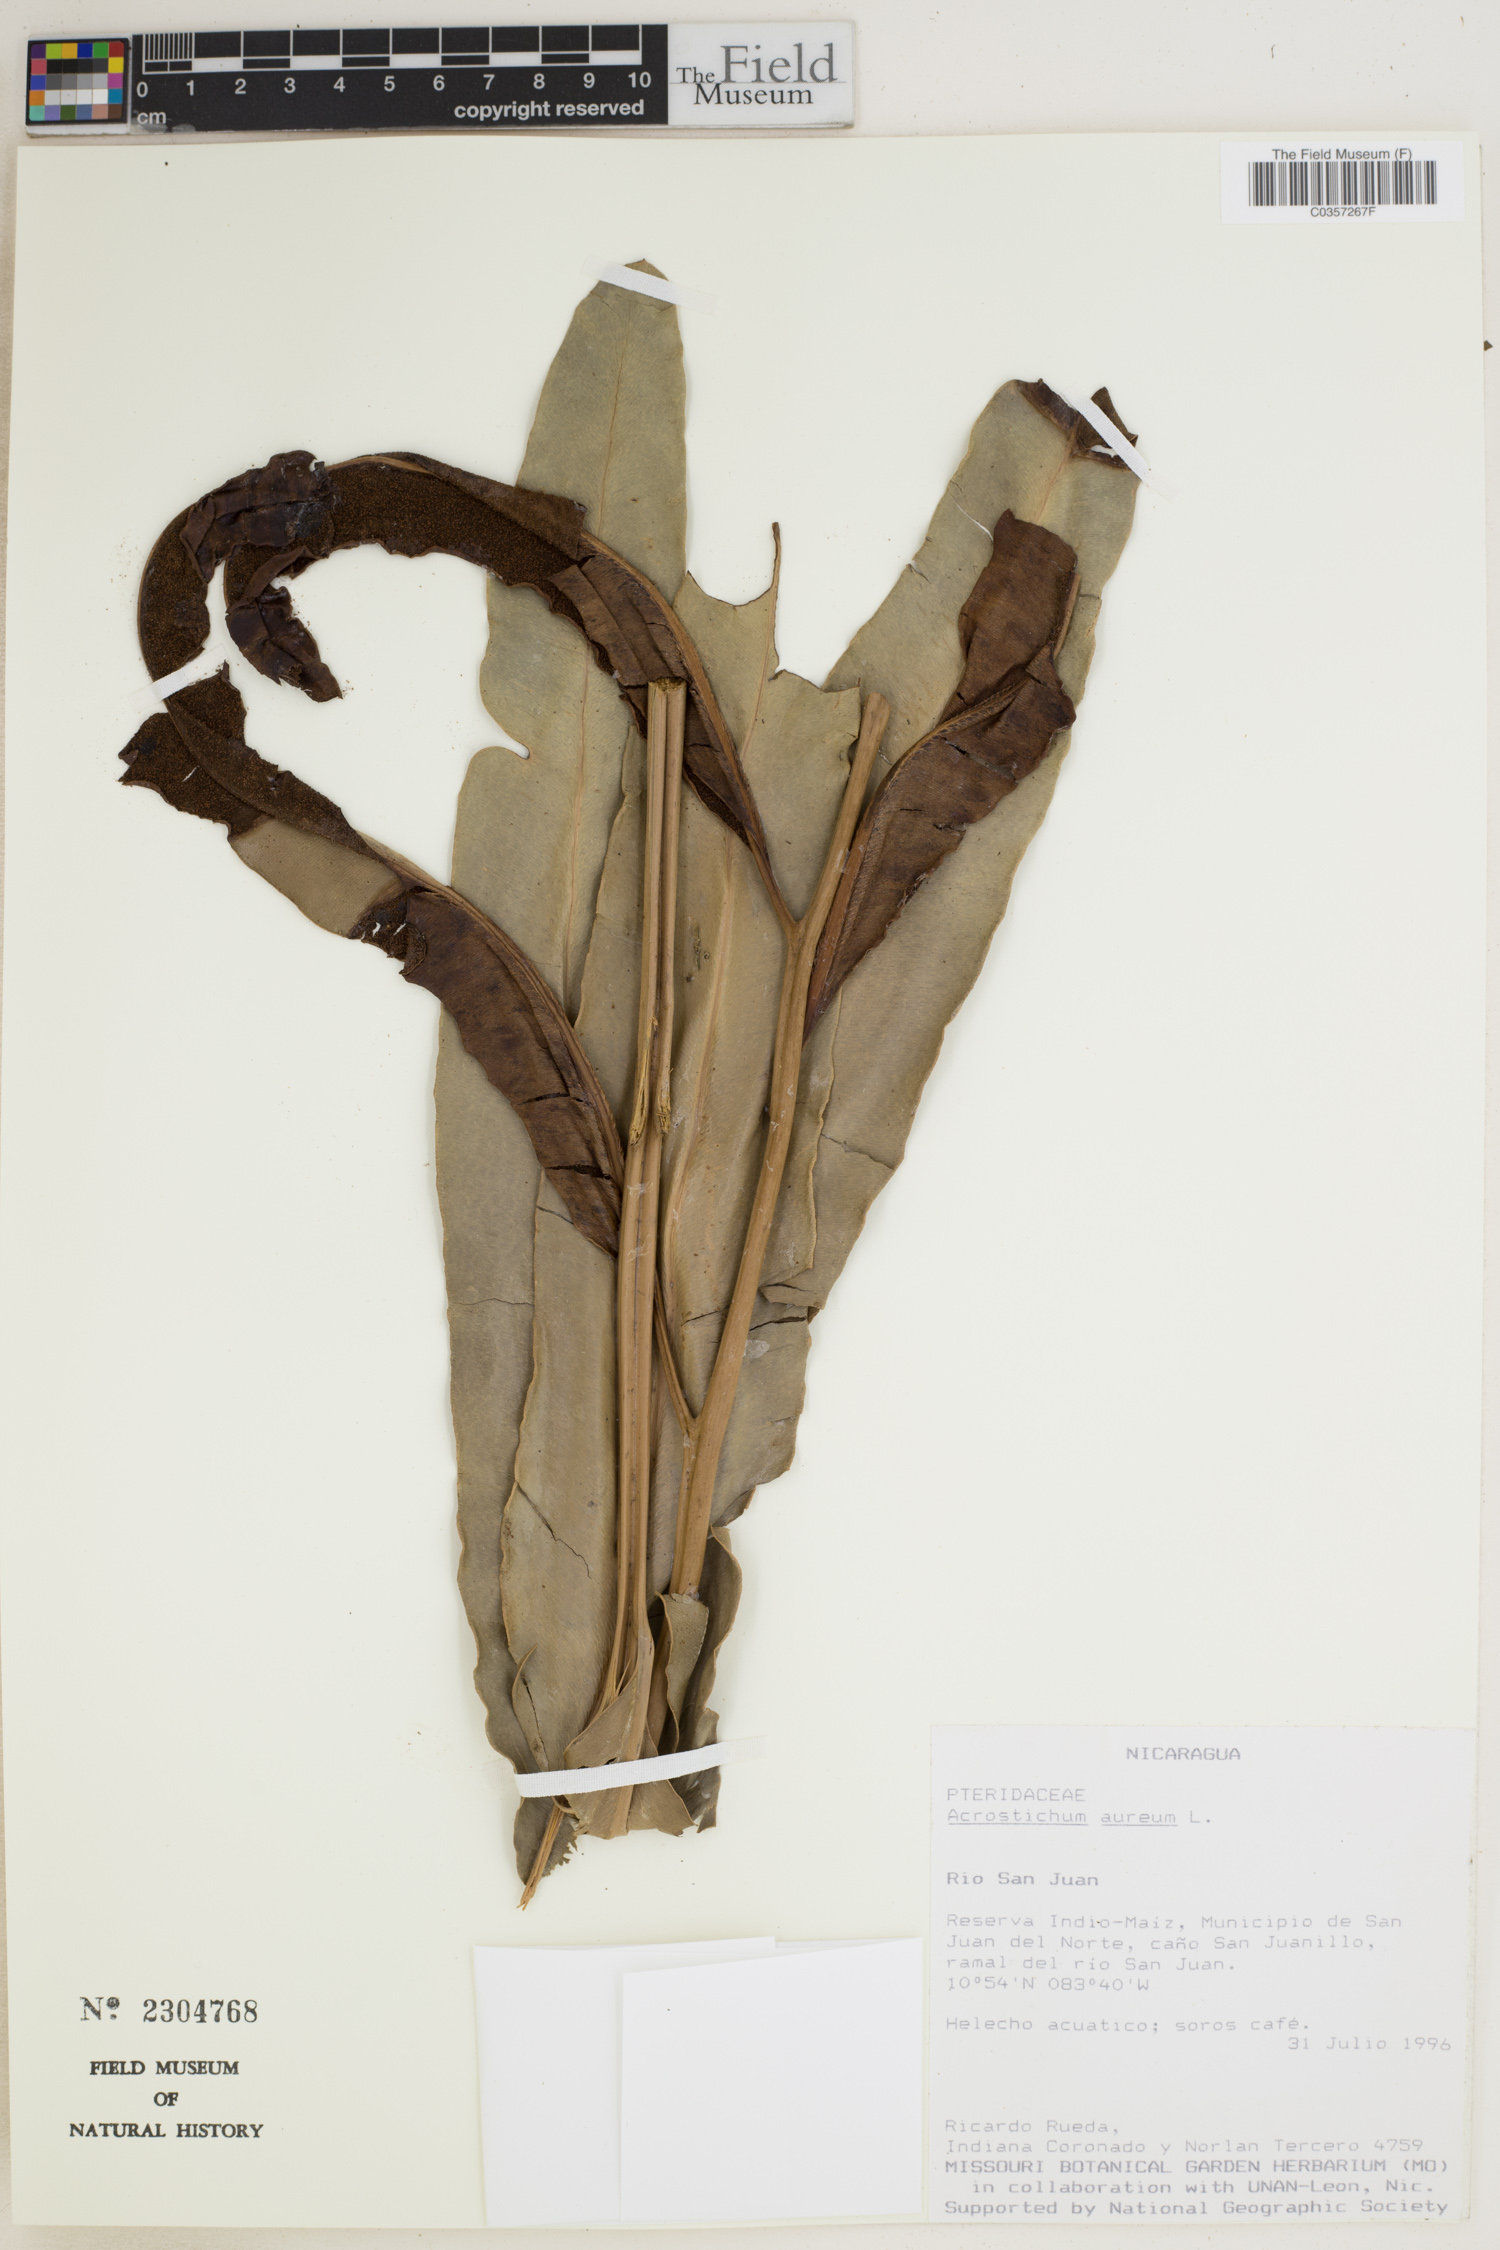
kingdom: Plantae
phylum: Tracheophyta
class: Polypodiopsida
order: Polypodiales
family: Pteridaceae
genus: Acrostichum
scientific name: Acrostichum aureum
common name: Leather fern
